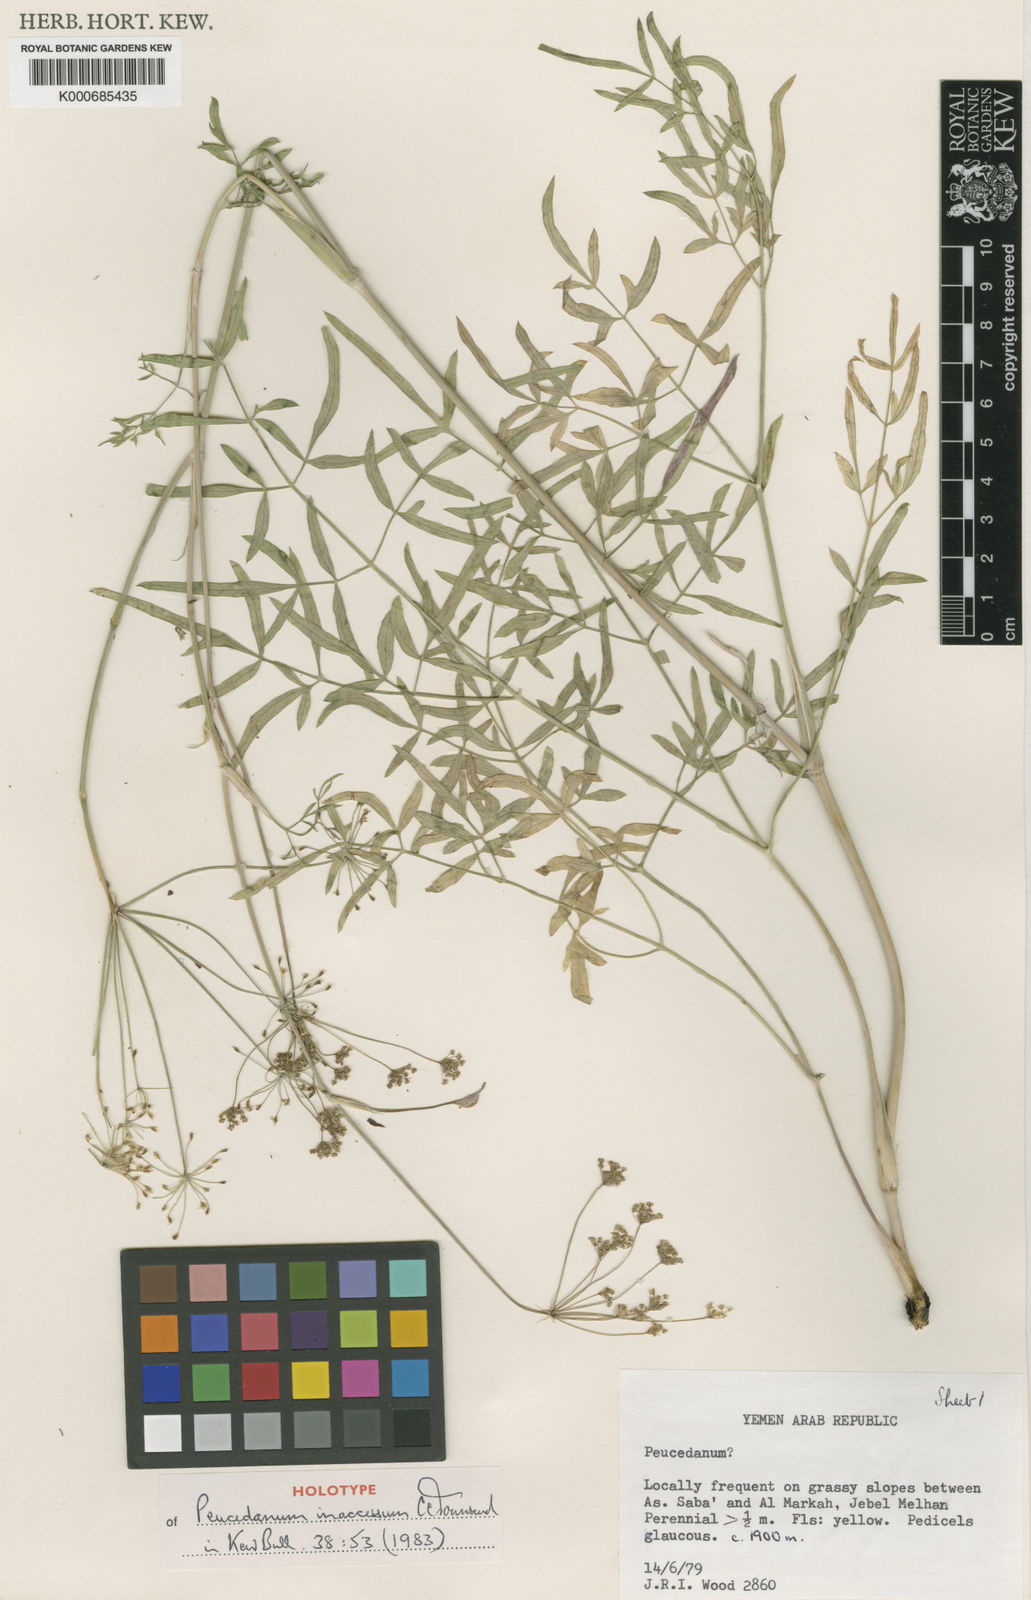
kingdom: Plantae
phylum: Tracheophyta
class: Magnoliopsida
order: Apiales
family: Apiaceae
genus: Ducrosia
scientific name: Ducrosia inaccessa
